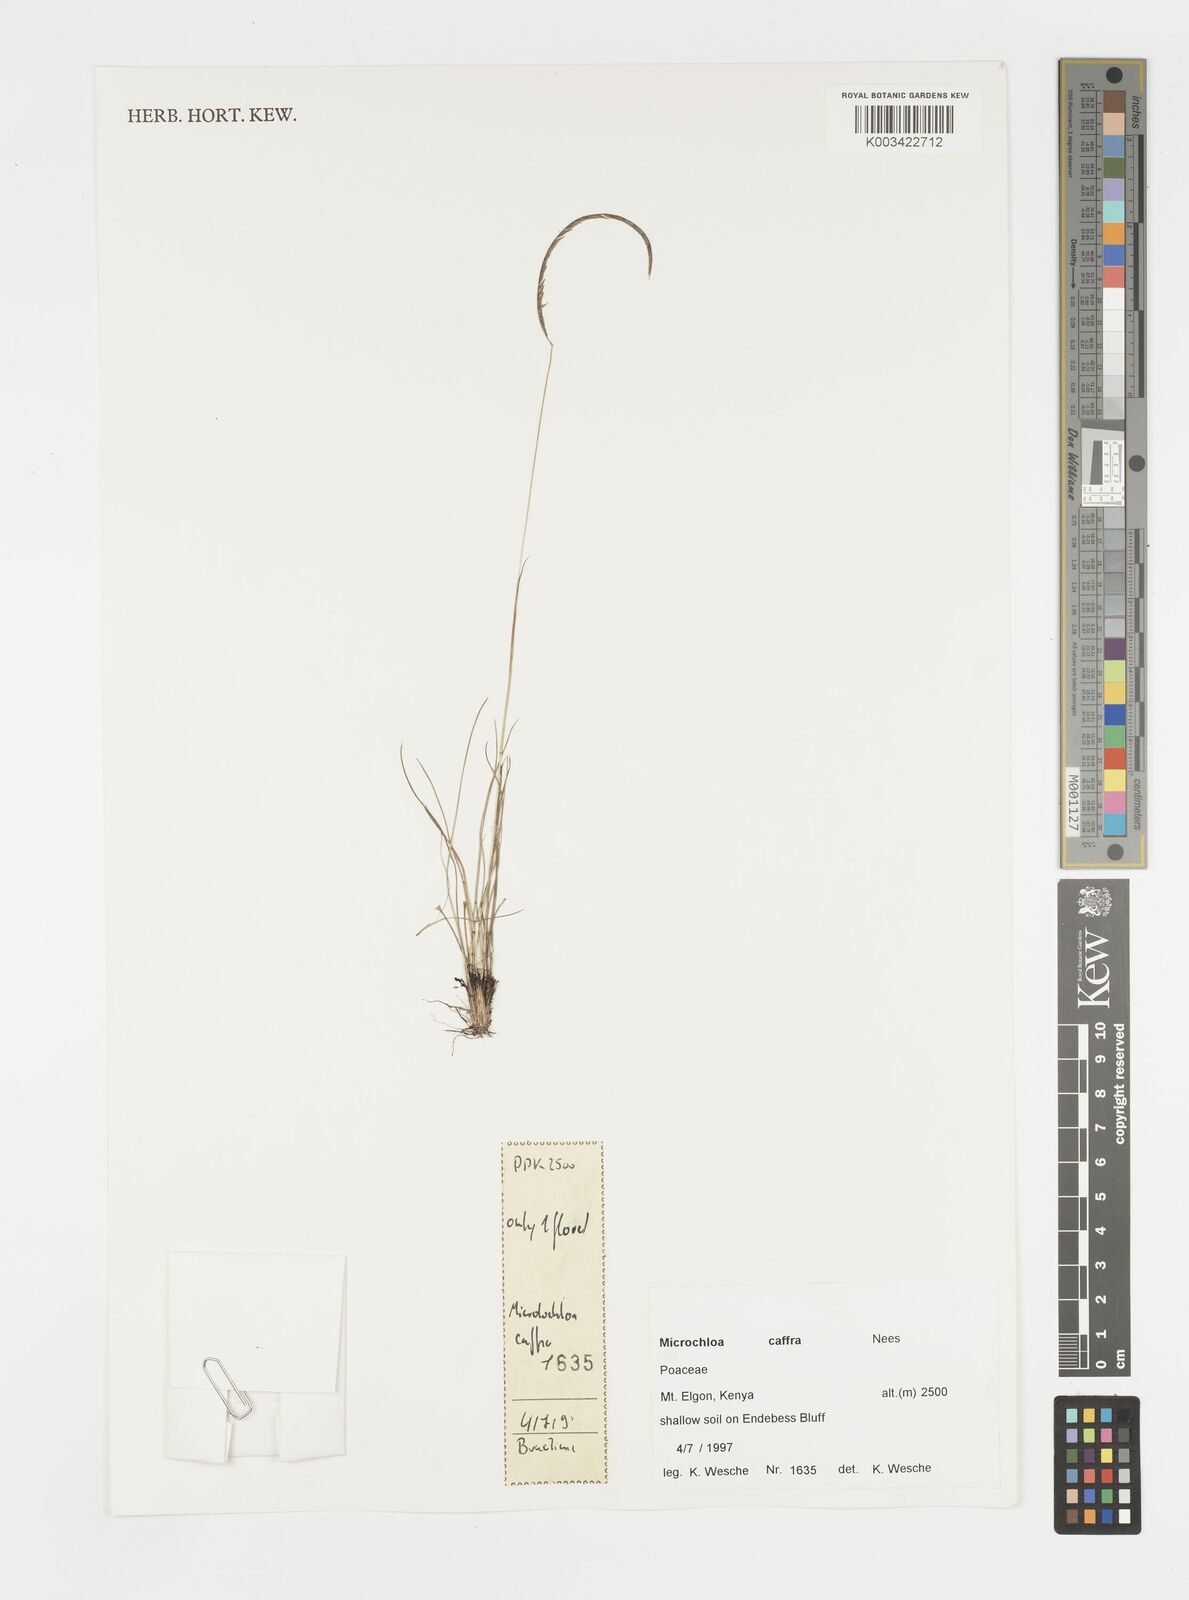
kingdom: Plantae
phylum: Tracheophyta
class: Liliopsida
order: Poales
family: Poaceae
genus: Microchloa
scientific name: Microchloa caffra
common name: Pincushion grass
